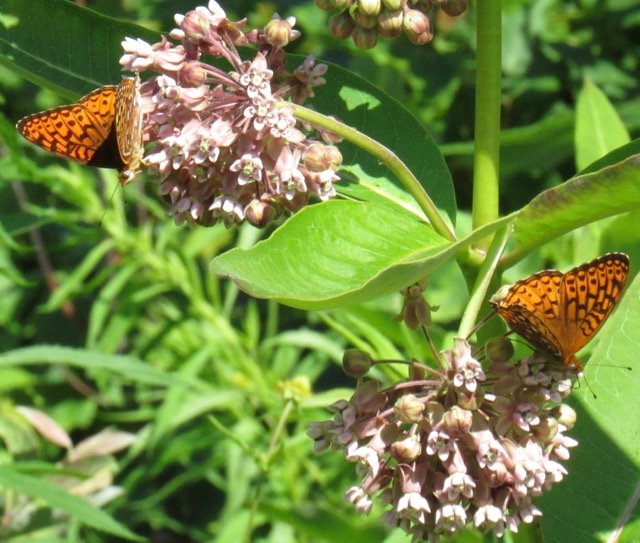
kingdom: Animalia
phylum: Arthropoda
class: Insecta
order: Lepidoptera
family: Nymphalidae
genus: Speyeria
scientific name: Speyeria atlantis
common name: Atlantis Fritillary
